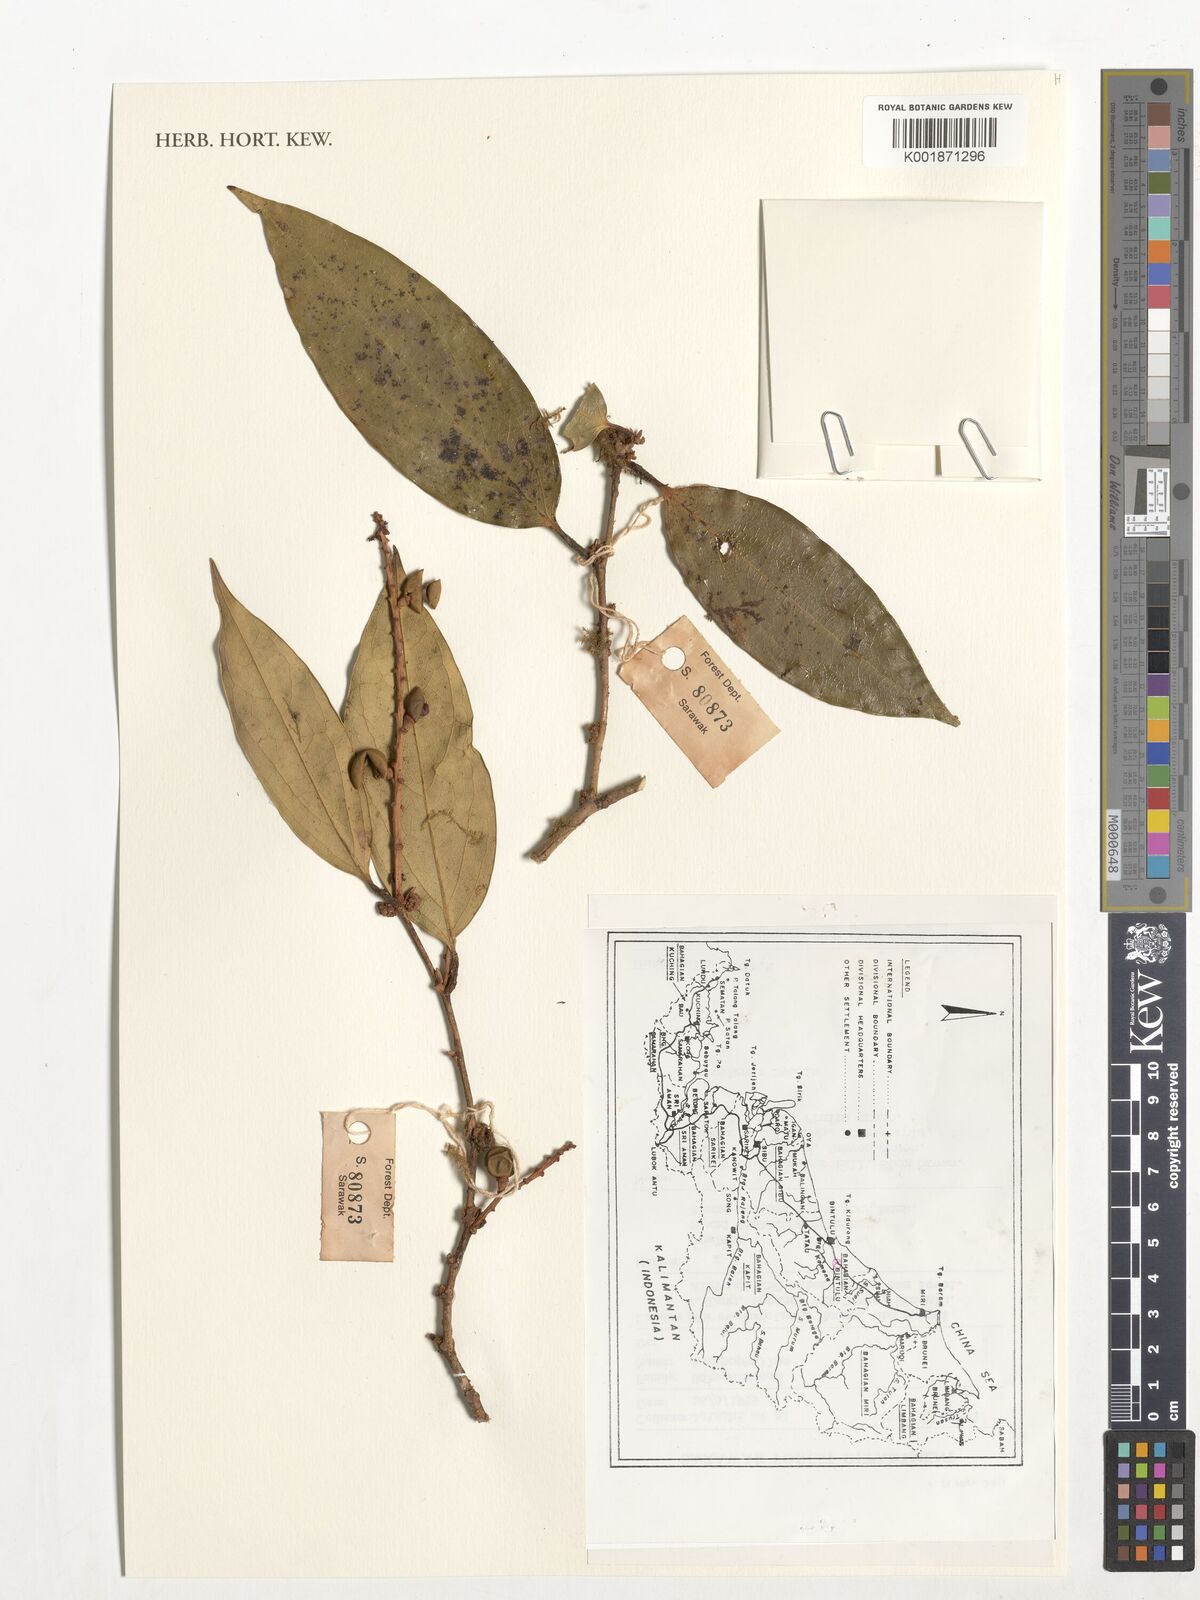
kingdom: Plantae
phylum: Tracheophyta
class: Magnoliopsida
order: Fabales
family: Polygalaceae
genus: Xanthophyllum
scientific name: Xanthophyllum
